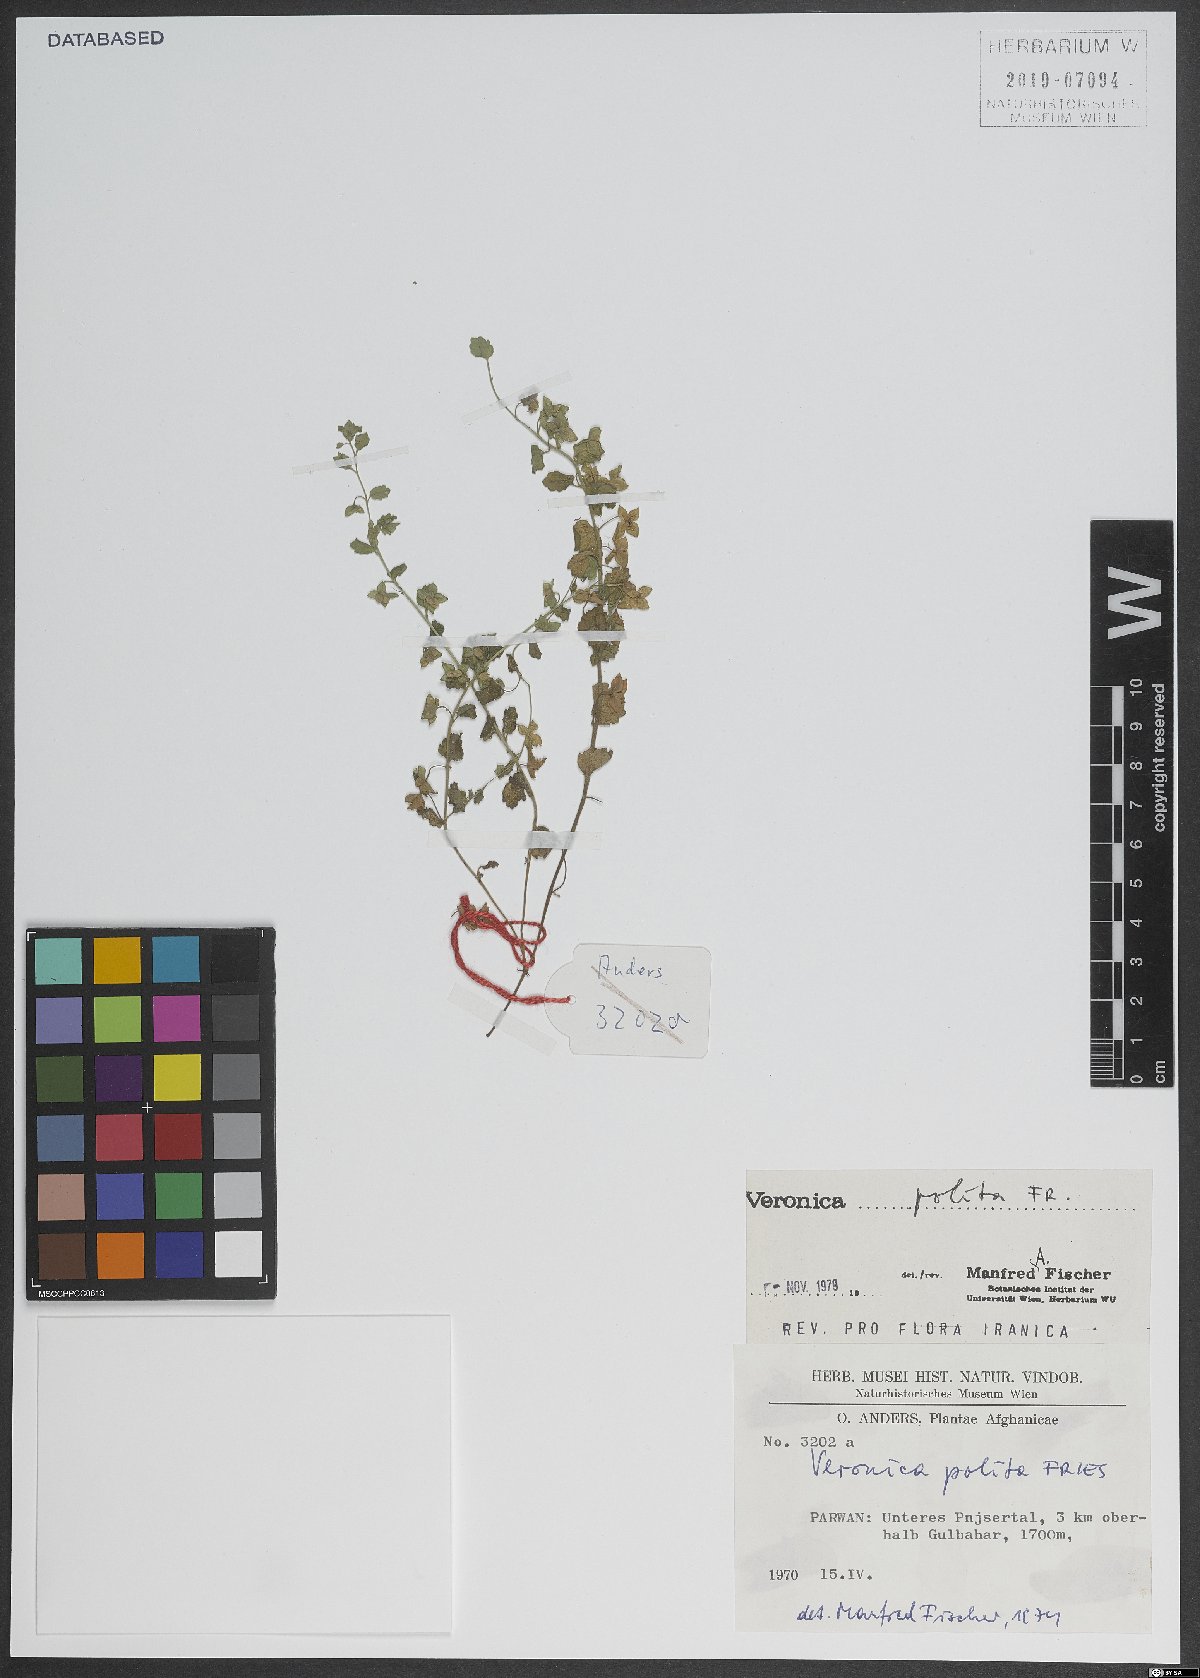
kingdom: Plantae
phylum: Tracheophyta
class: Magnoliopsida
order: Lamiales
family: Plantaginaceae
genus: Veronica
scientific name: Veronica polita
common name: Grey field-speedwell
